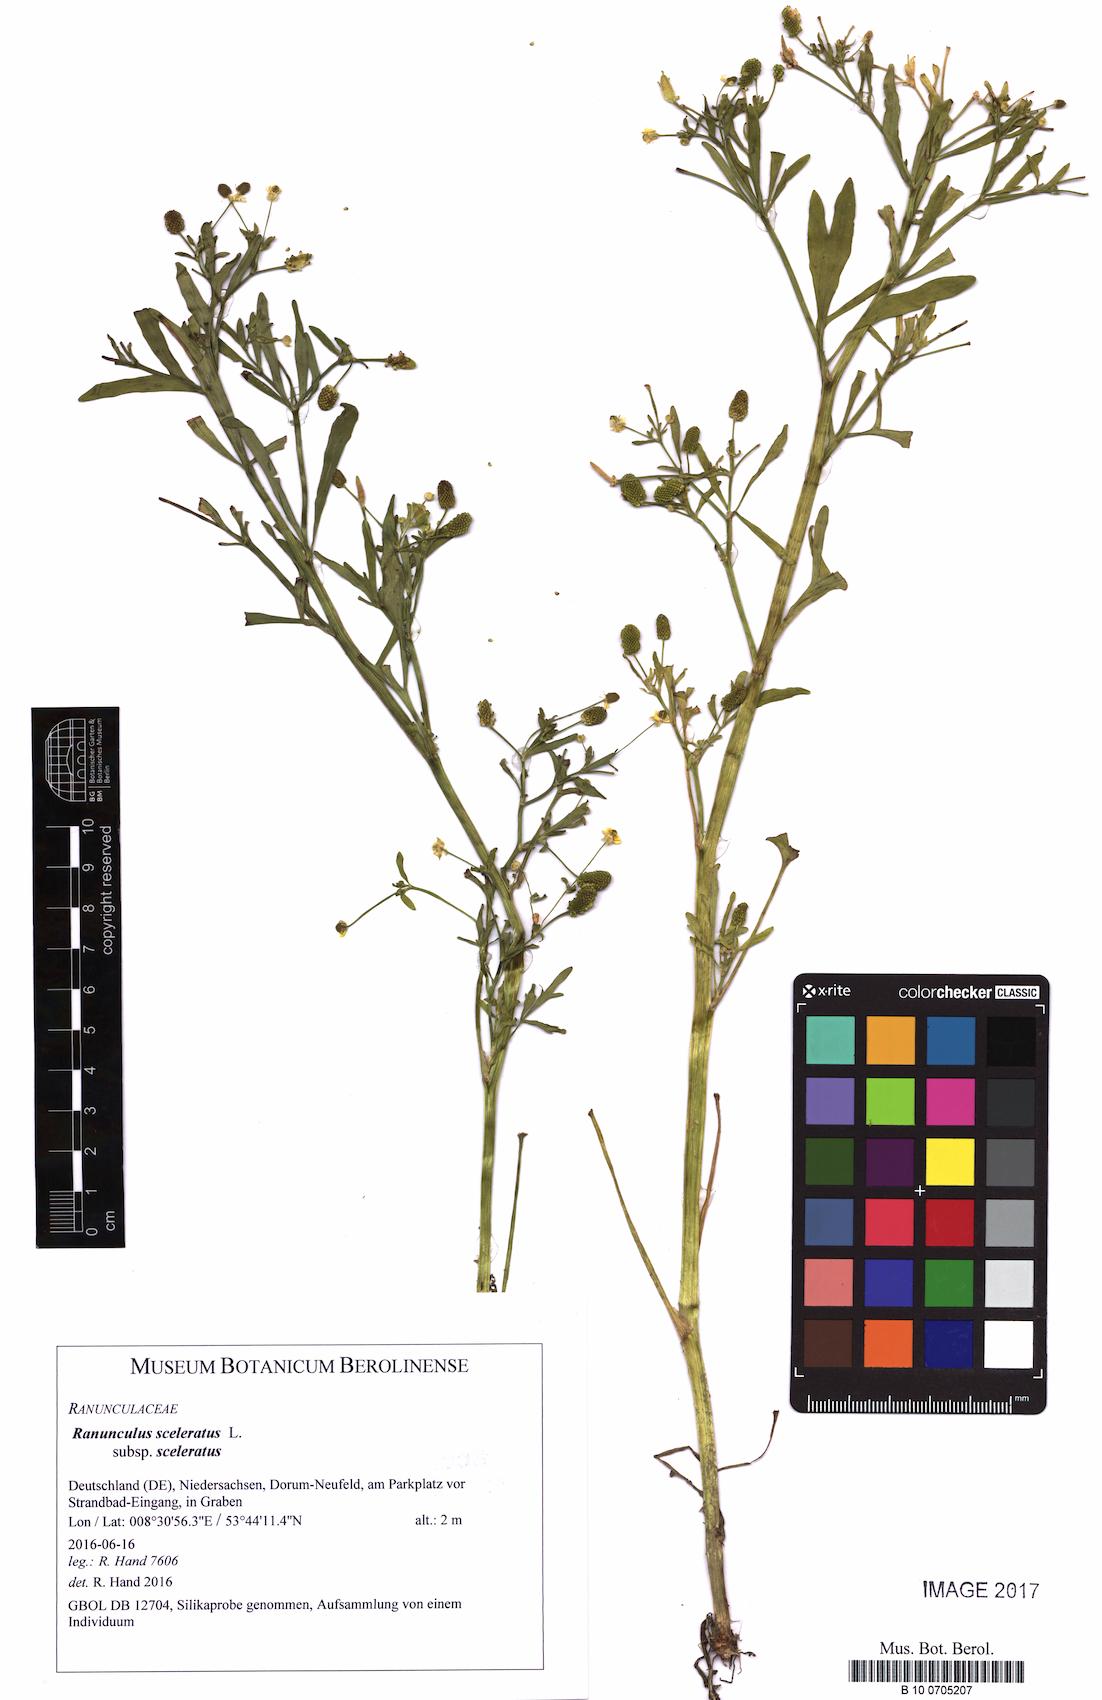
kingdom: Plantae
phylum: Tracheophyta
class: Magnoliopsida
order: Ranunculales
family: Ranunculaceae
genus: Ranunculus
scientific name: Ranunculus sceleratus
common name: Celery-leaved buttercup
